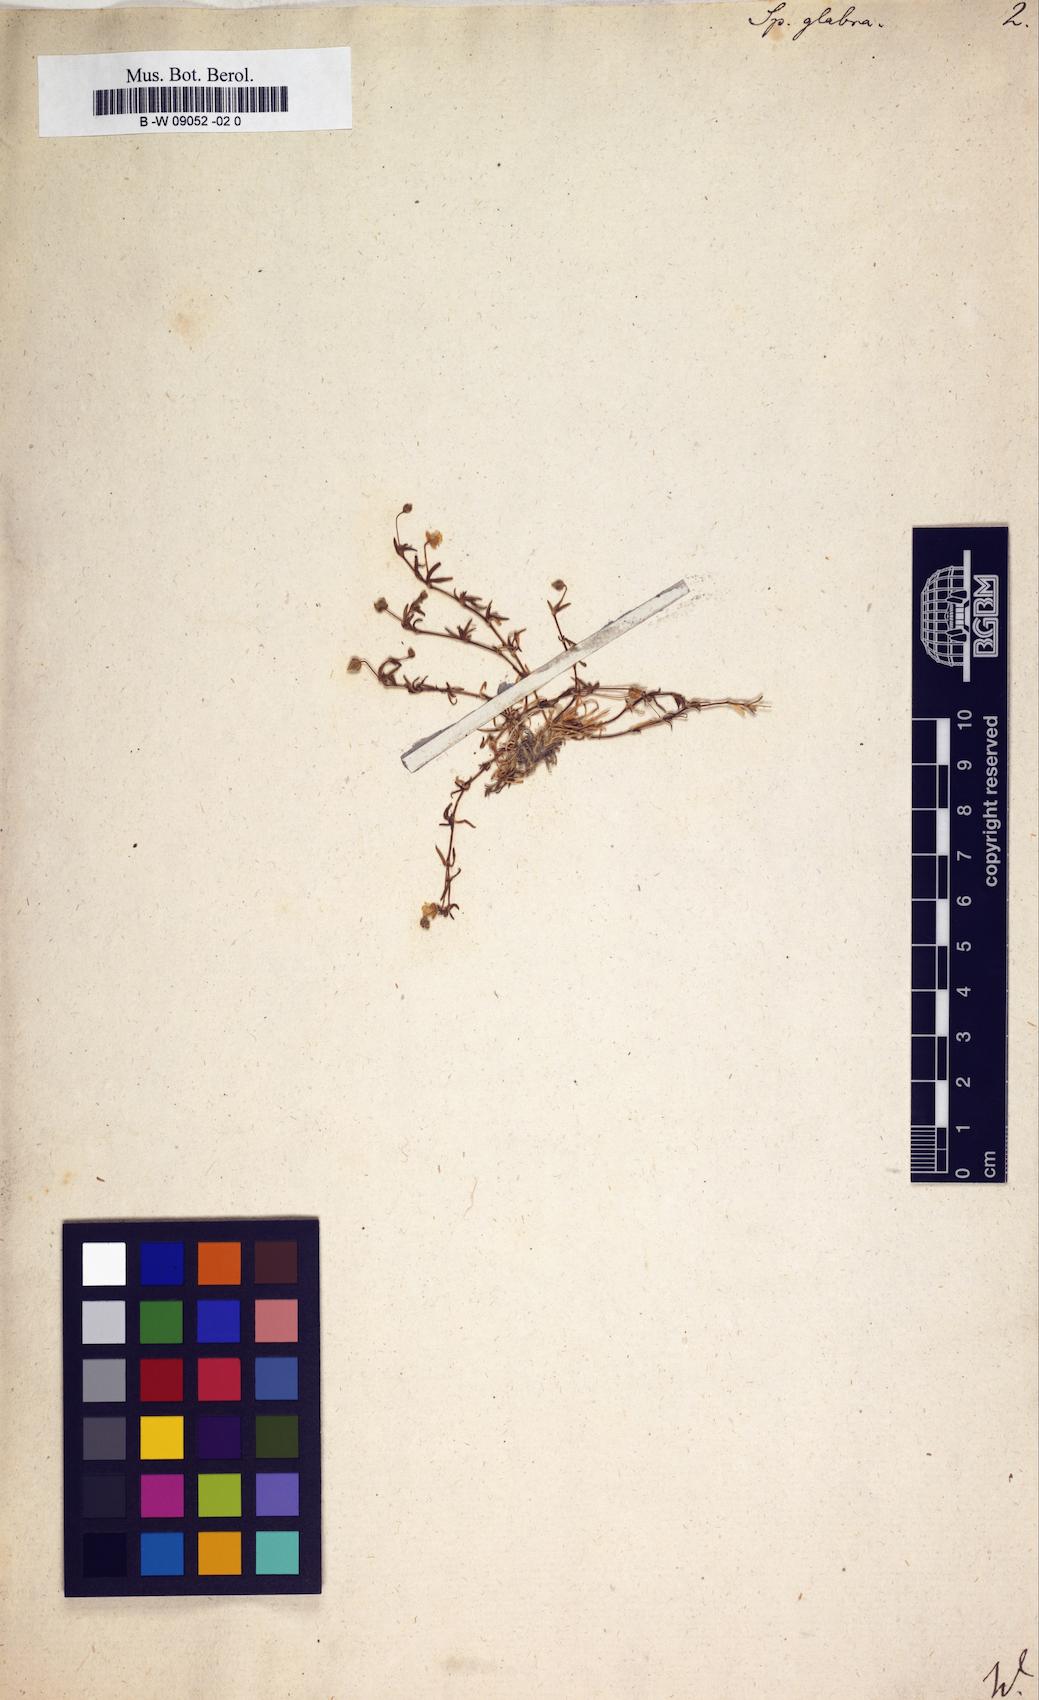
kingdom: Plantae
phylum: Tracheophyta
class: Magnoliopsida
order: Caryophyllales
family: Caryophyllaceae
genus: Sagina
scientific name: Sagina glabra
